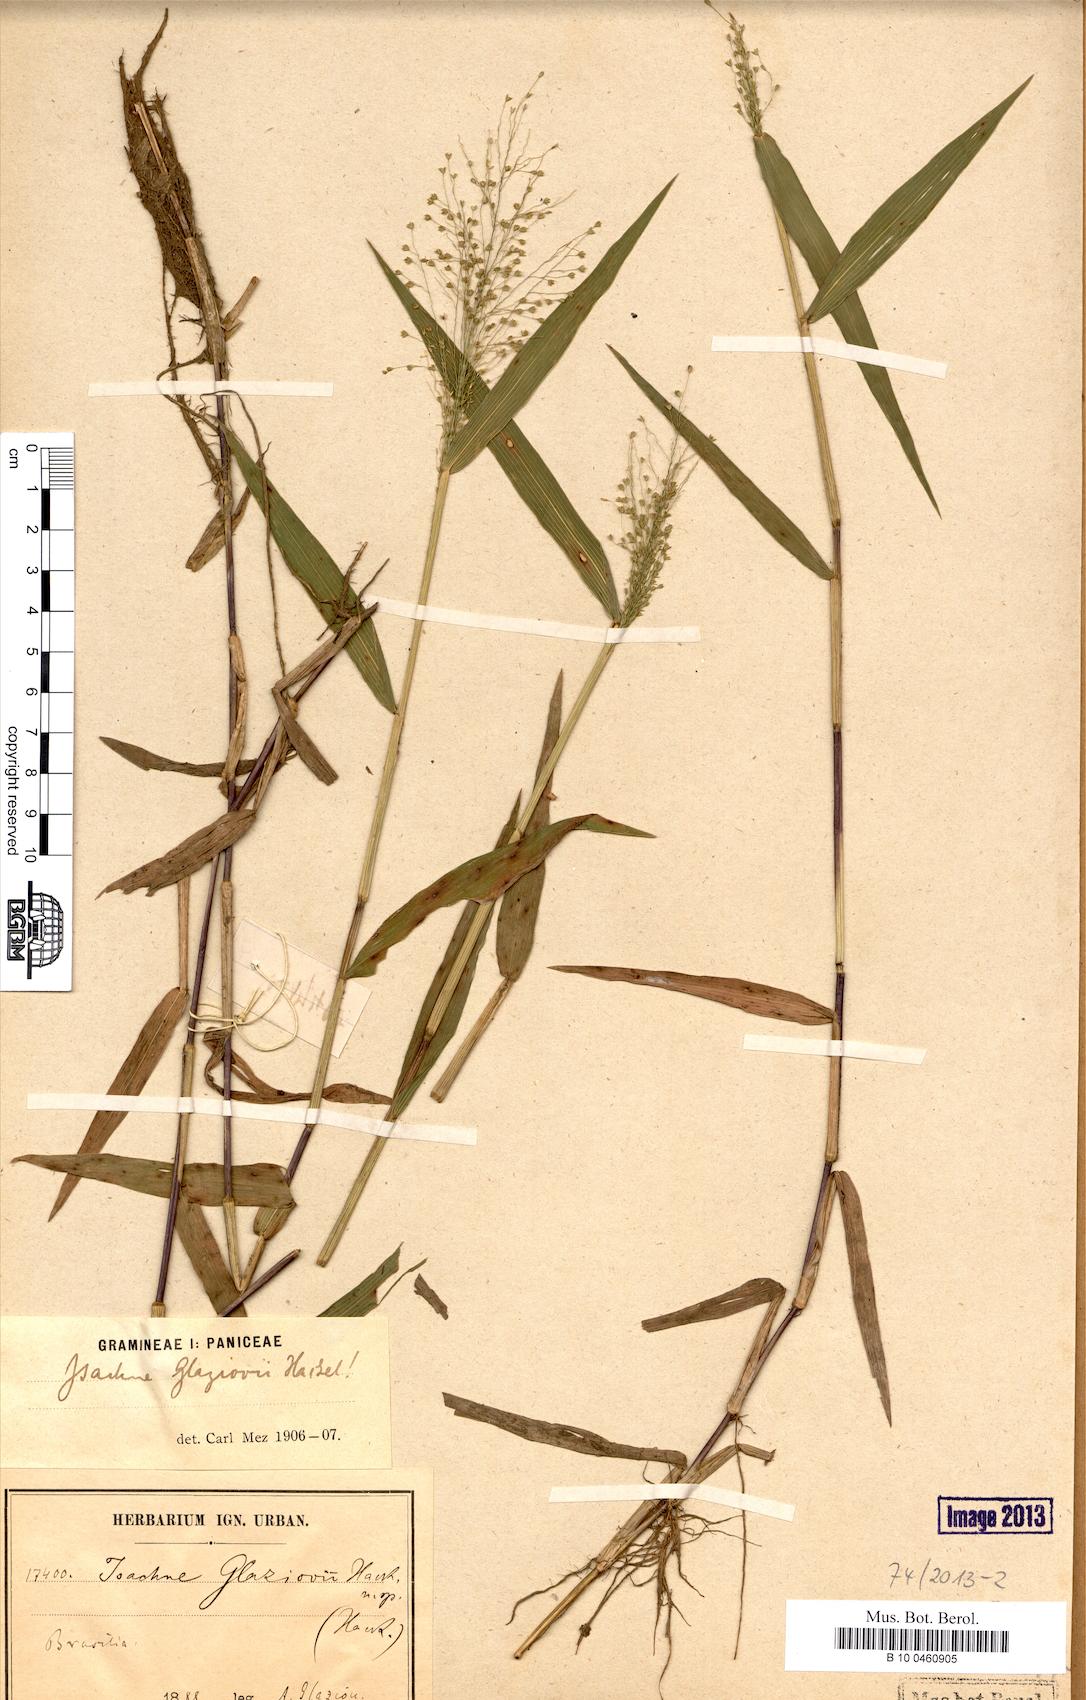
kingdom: Plantae
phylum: Tracheophyta
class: Liliopsida
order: Poales
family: Poaceae
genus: Isachne
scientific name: Isachne
